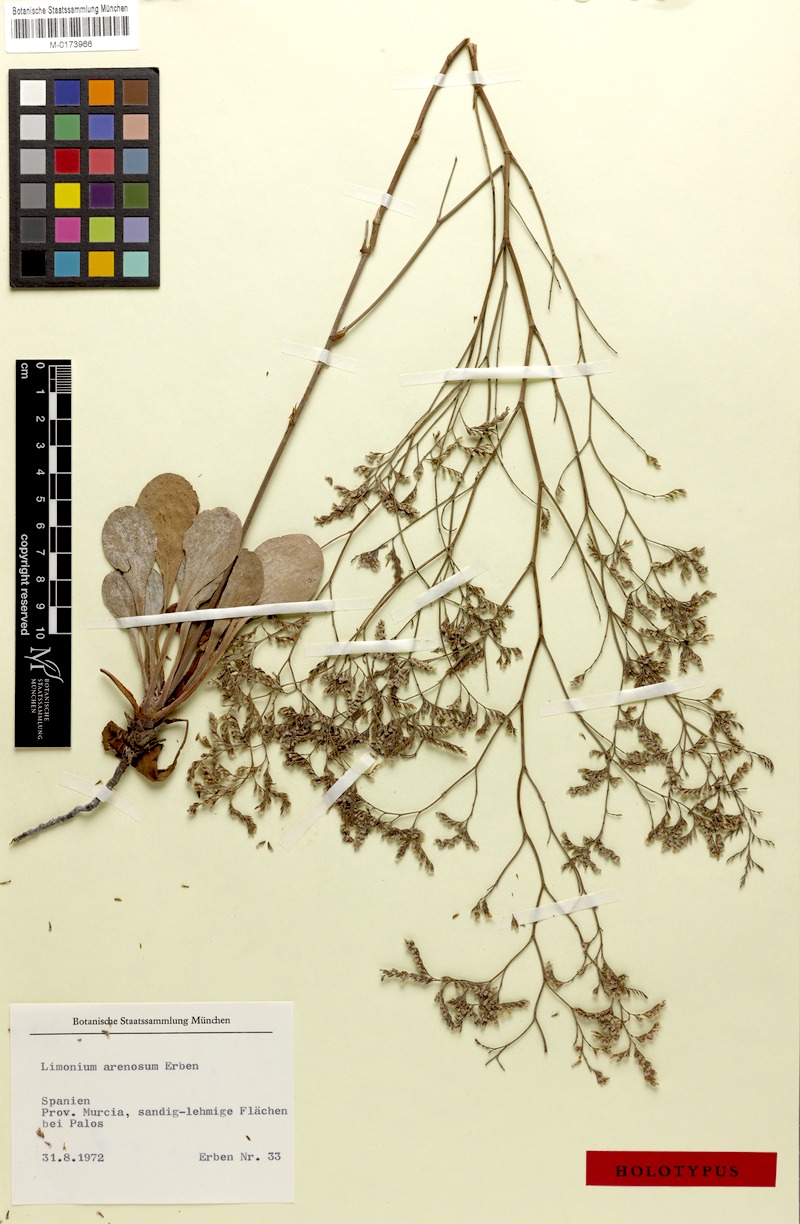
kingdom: Plantae
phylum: Tracheophyta
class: Magnoliopsida
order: Caryophyllales
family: Plumbaginaceae
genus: Limonium
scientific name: Limonium arenosum
